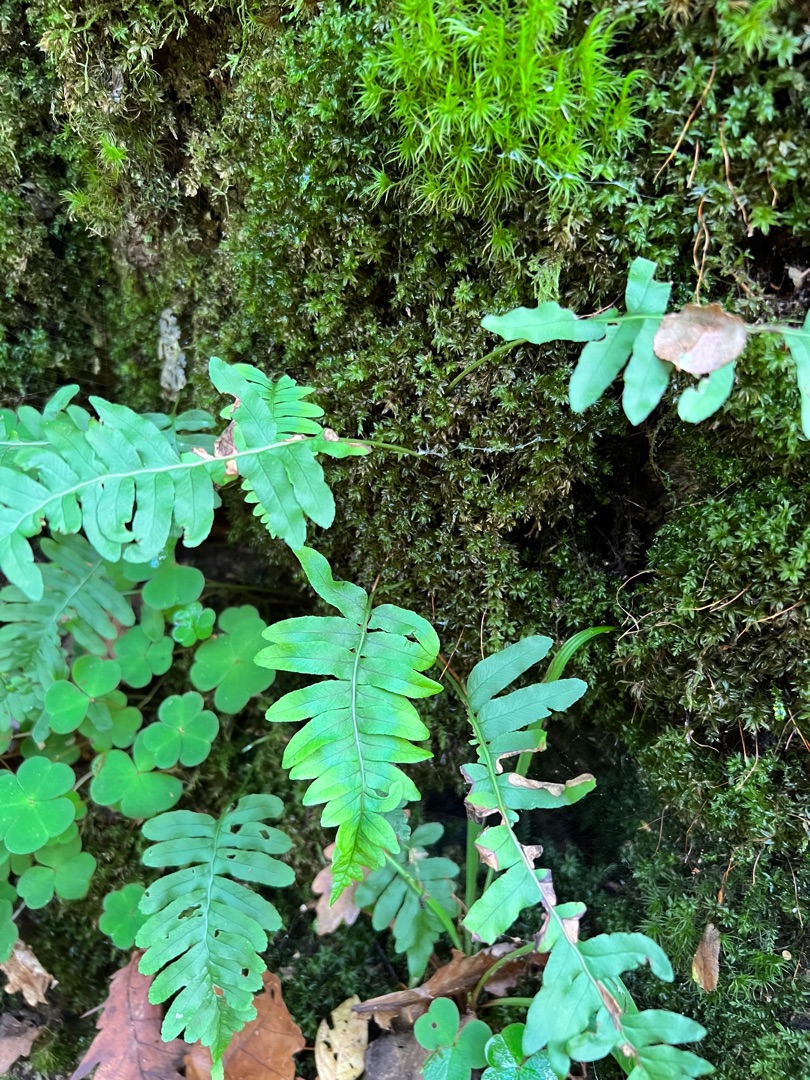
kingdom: Plantae
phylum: Tracheophyta
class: Polypodiopsida
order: Polypodiales
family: Polypodiaceae
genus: Polypodium
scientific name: Polypodium vulgare
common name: Almindelig engelsød
